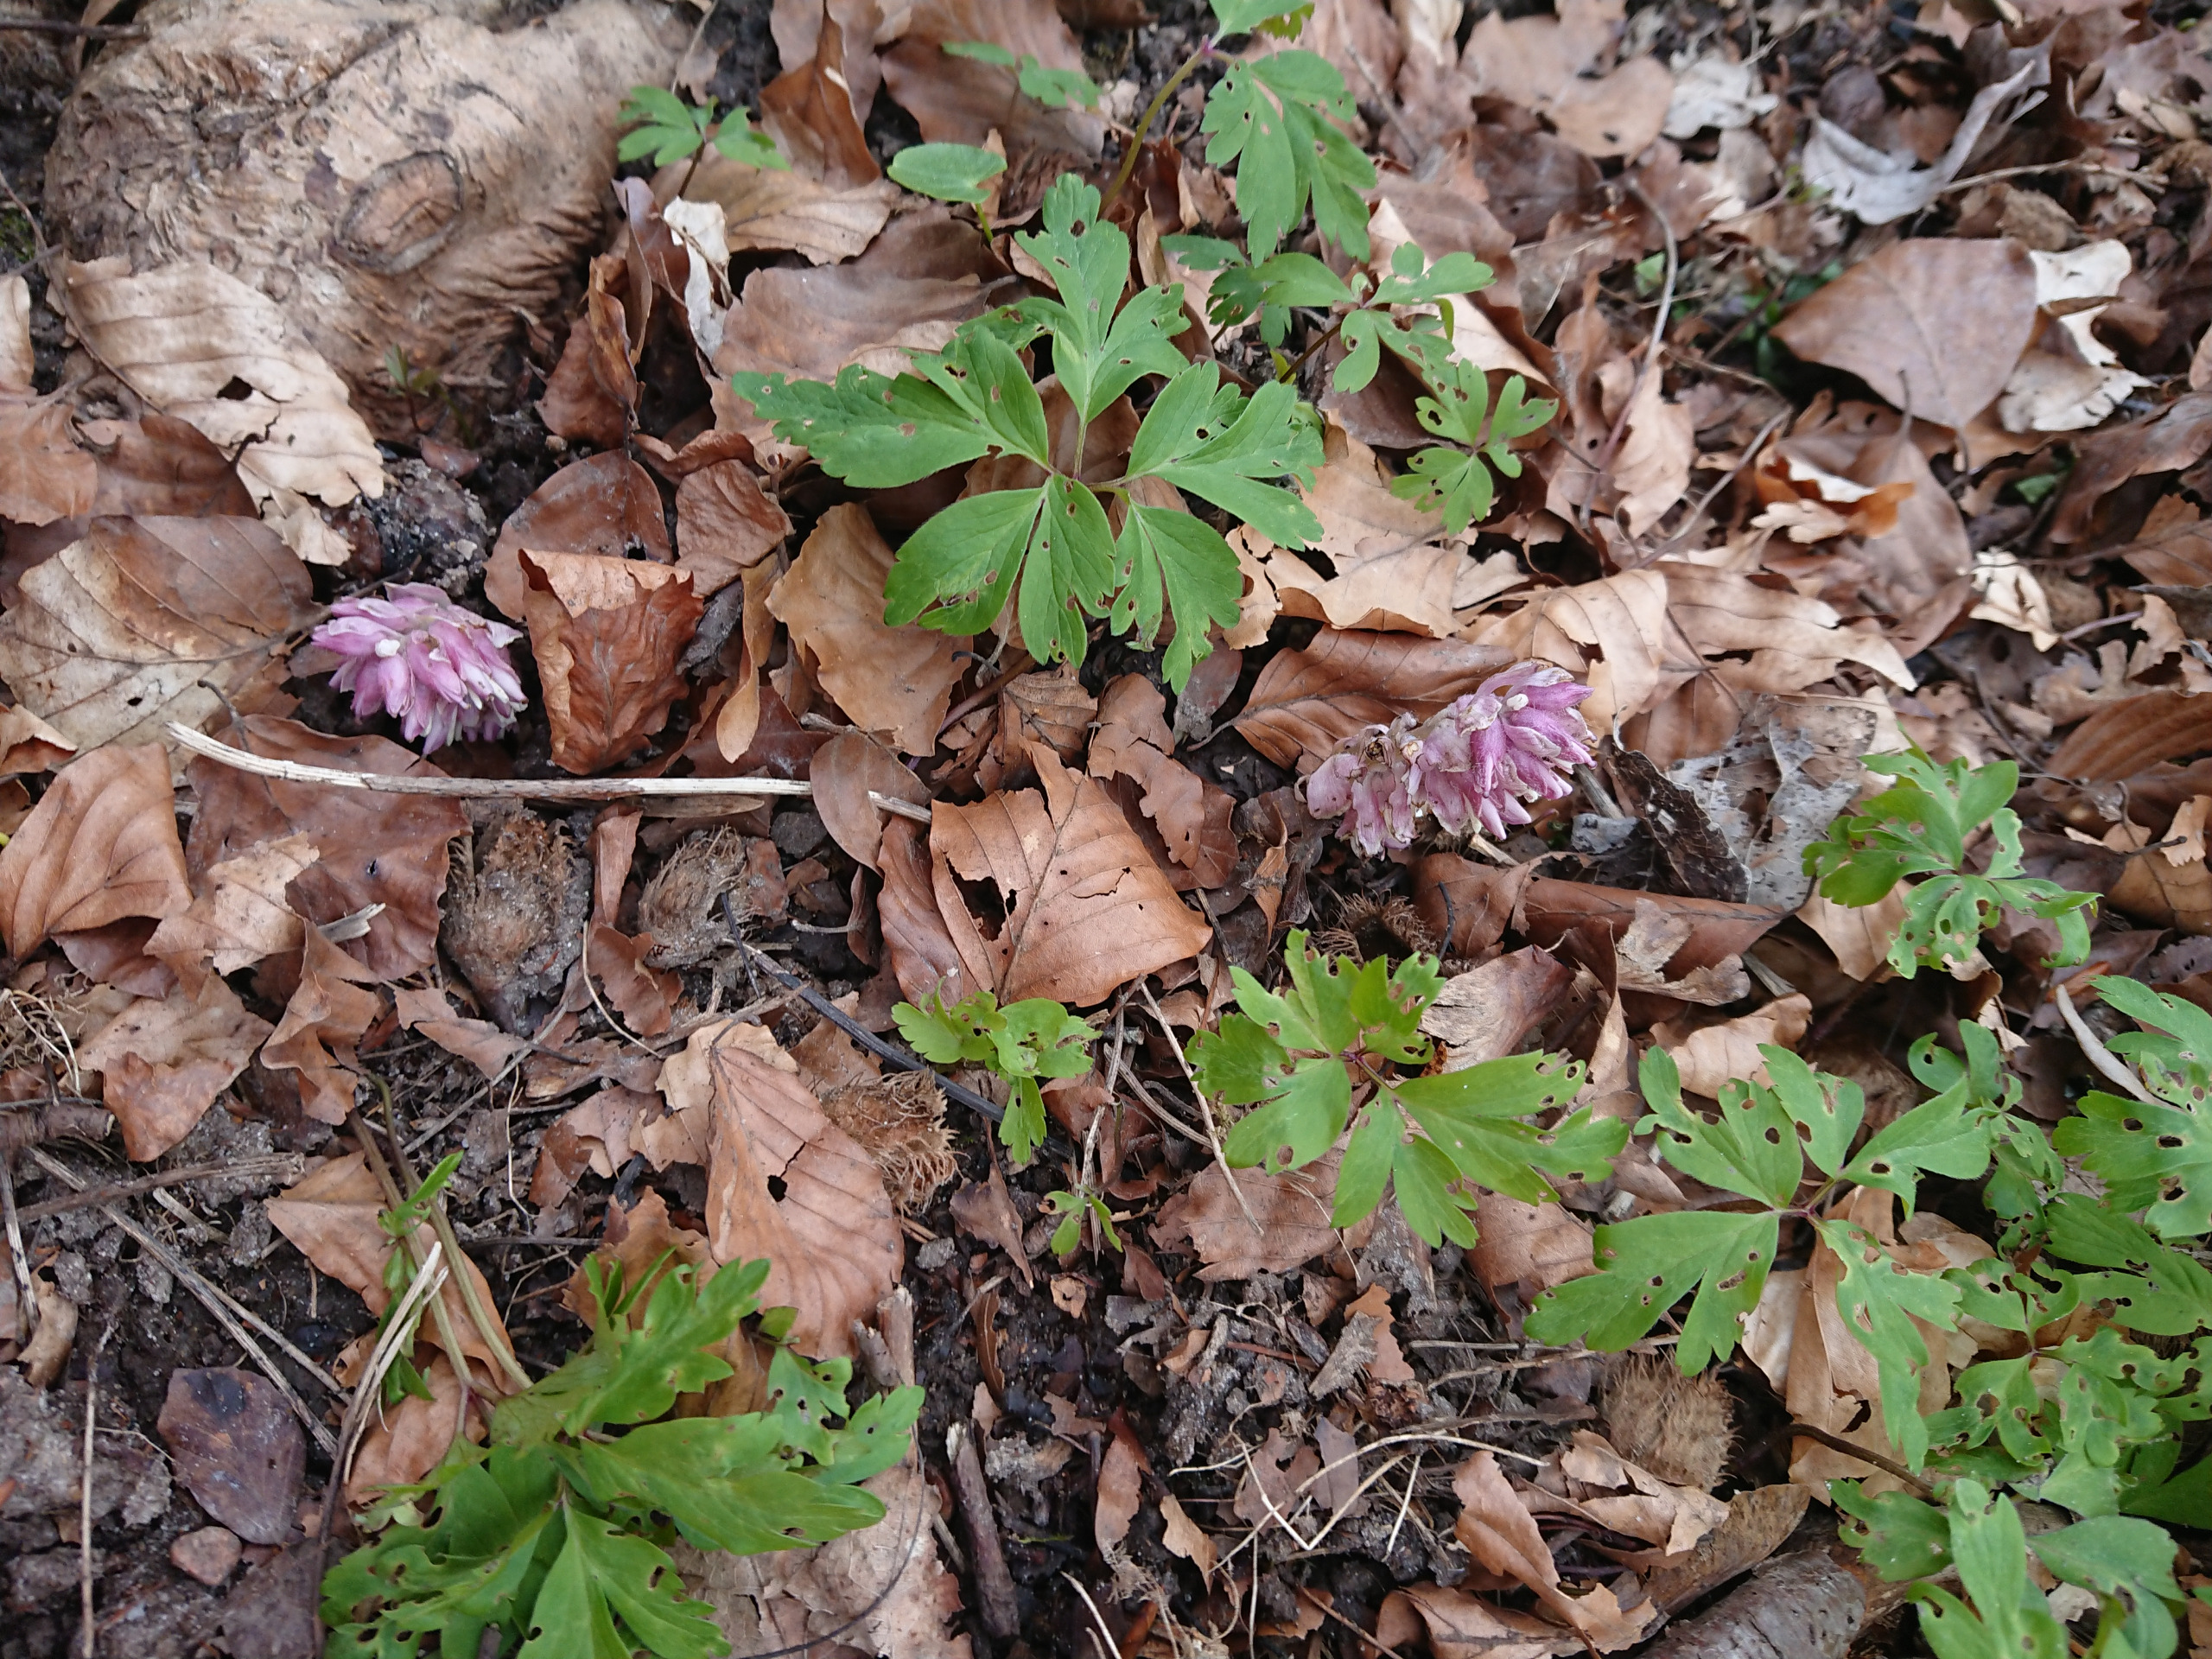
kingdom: Plantae
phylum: Tracheophyta
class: Magnoliopsida
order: Lamiales
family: Orobanchaceae
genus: Lathraea
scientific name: Lathraea squamaria
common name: Skælrod
